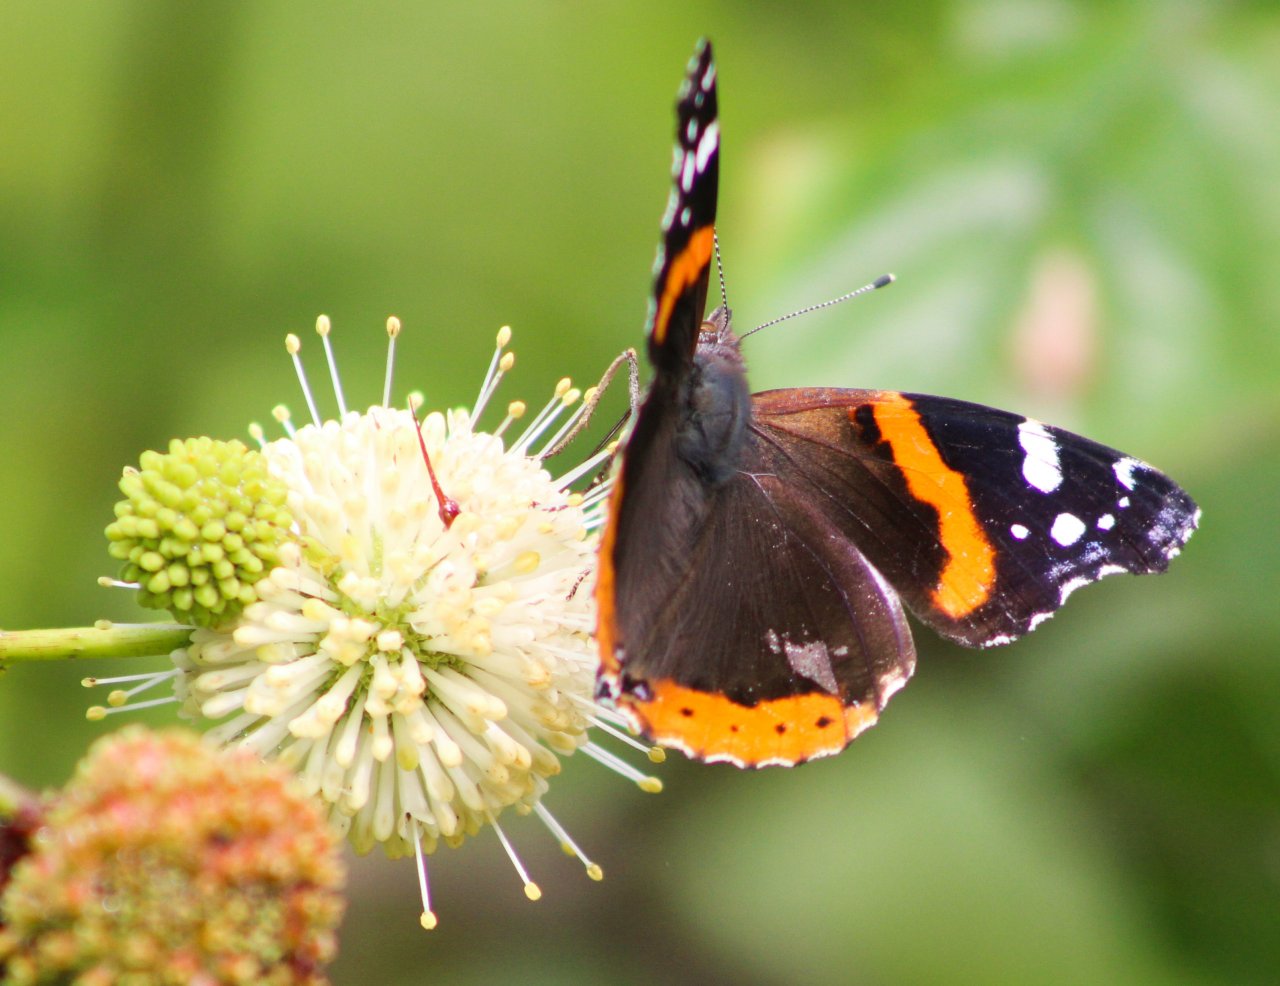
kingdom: Animalia
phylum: Arthropoda
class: Insecta
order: Lepidoptera
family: Nymphalidae
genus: Vanessa
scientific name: Vanessa atalanta
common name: Red Admiral
